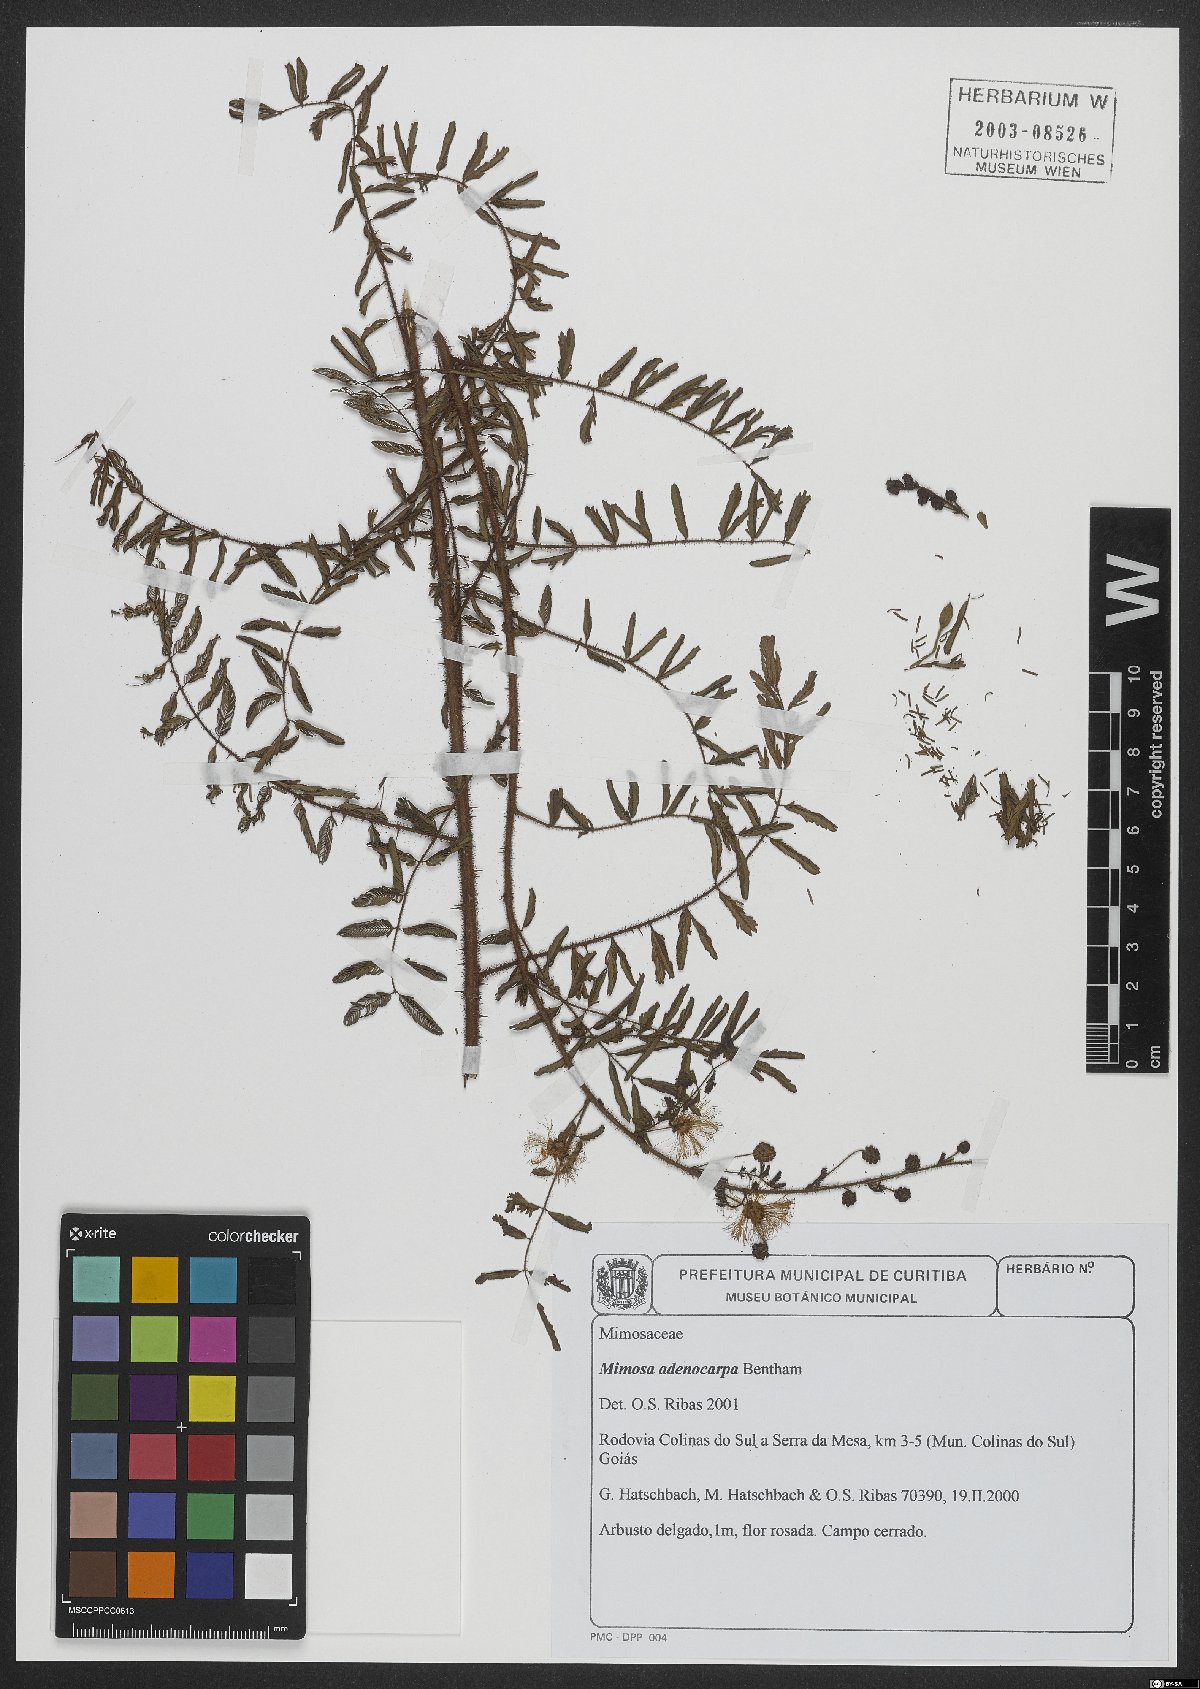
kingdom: Plantae
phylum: Tracheophyta
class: Magnoliopsida
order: Fabales
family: Fabaceae
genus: Mimosa
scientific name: Mimosa adenocarpa
